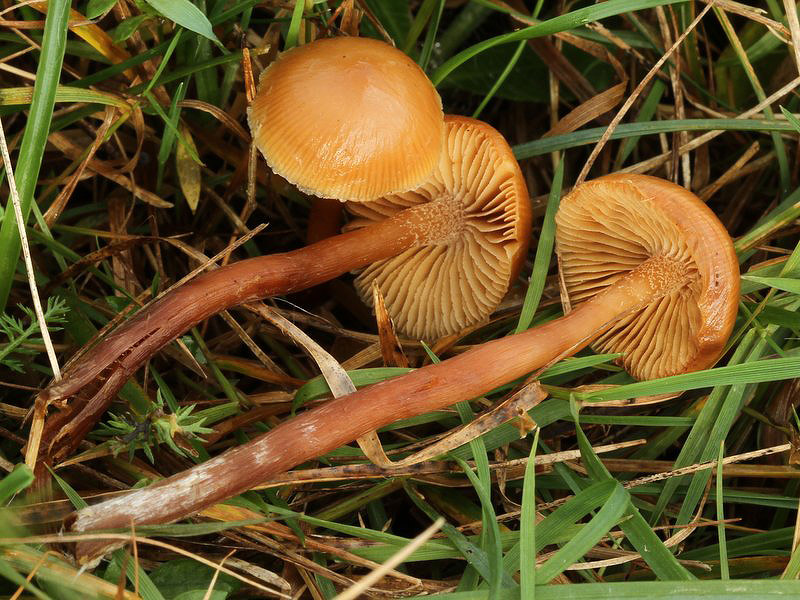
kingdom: Fungi
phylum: Basidiomycota
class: Agaricomycetes
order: Agaricales
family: Hymenogastraceae
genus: Galerina
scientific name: Galerina sideroides
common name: træflis-hjelmhat
